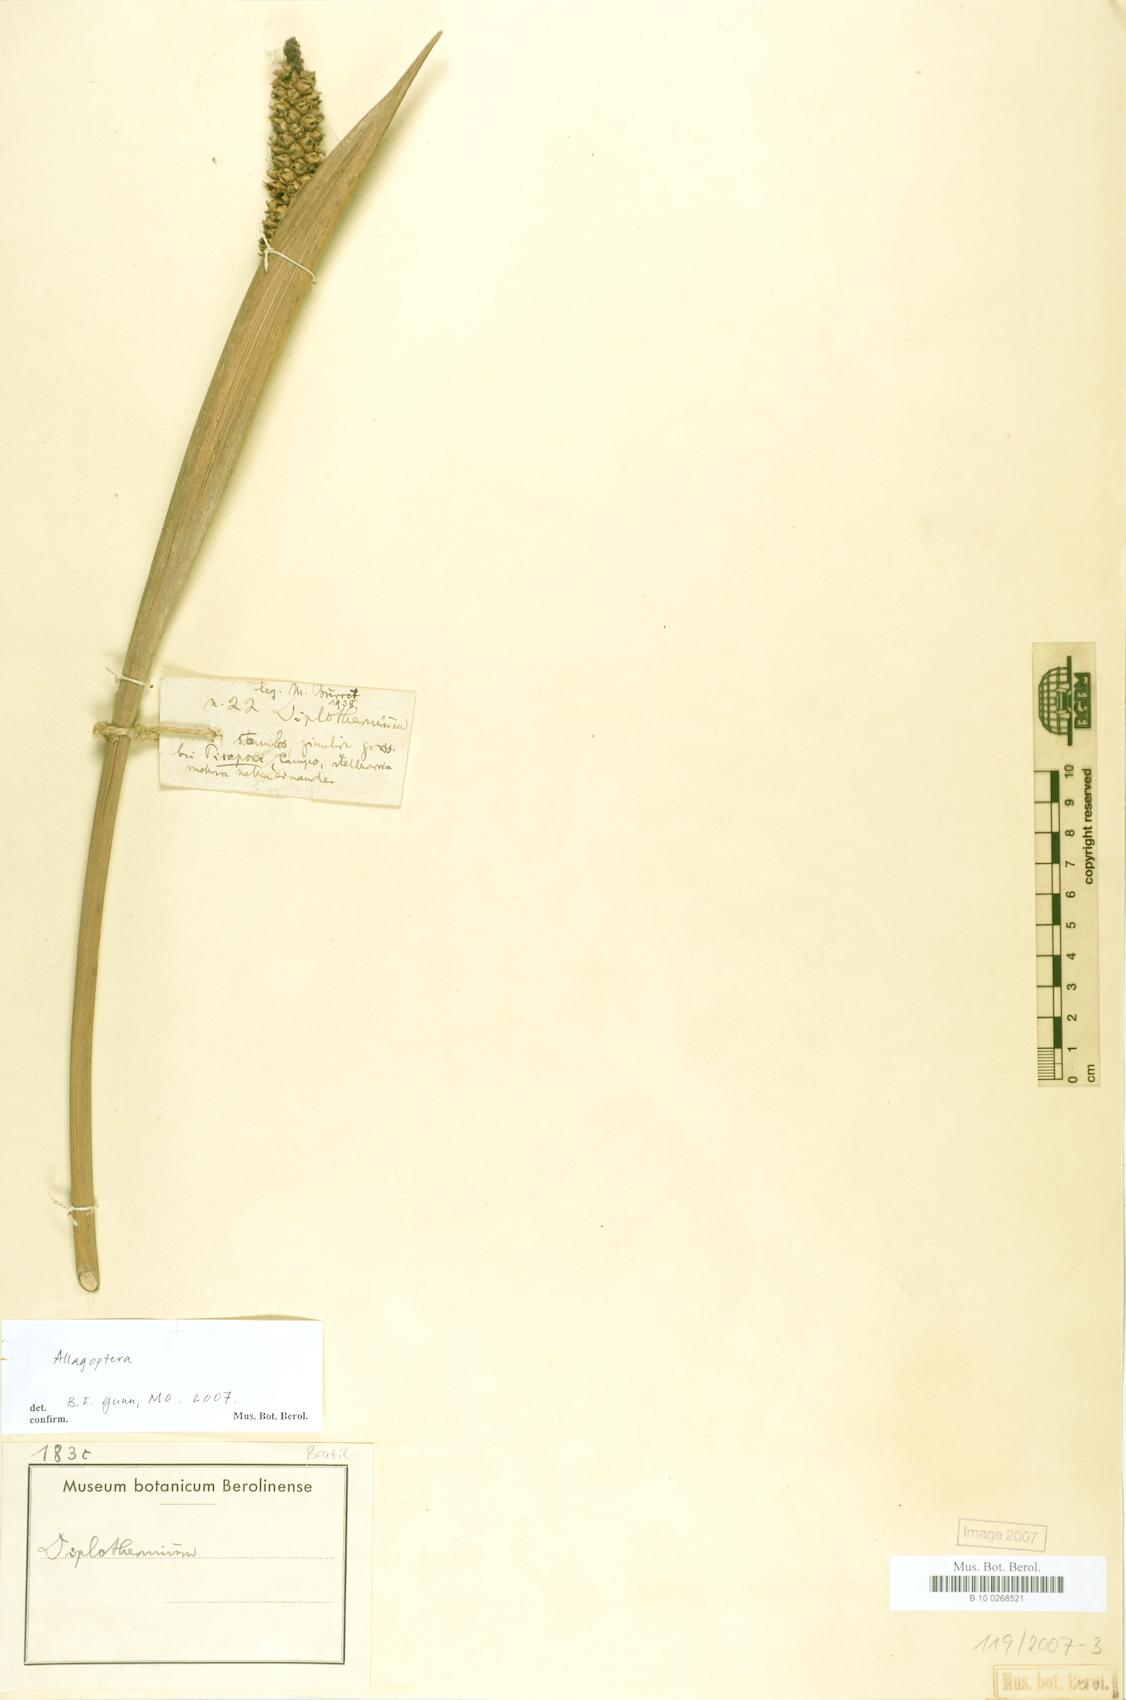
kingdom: Plantae
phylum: Tracheophyta
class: Liliopsida
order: Arecales
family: Arecaceae
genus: Allagoptera
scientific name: Allagoptera
